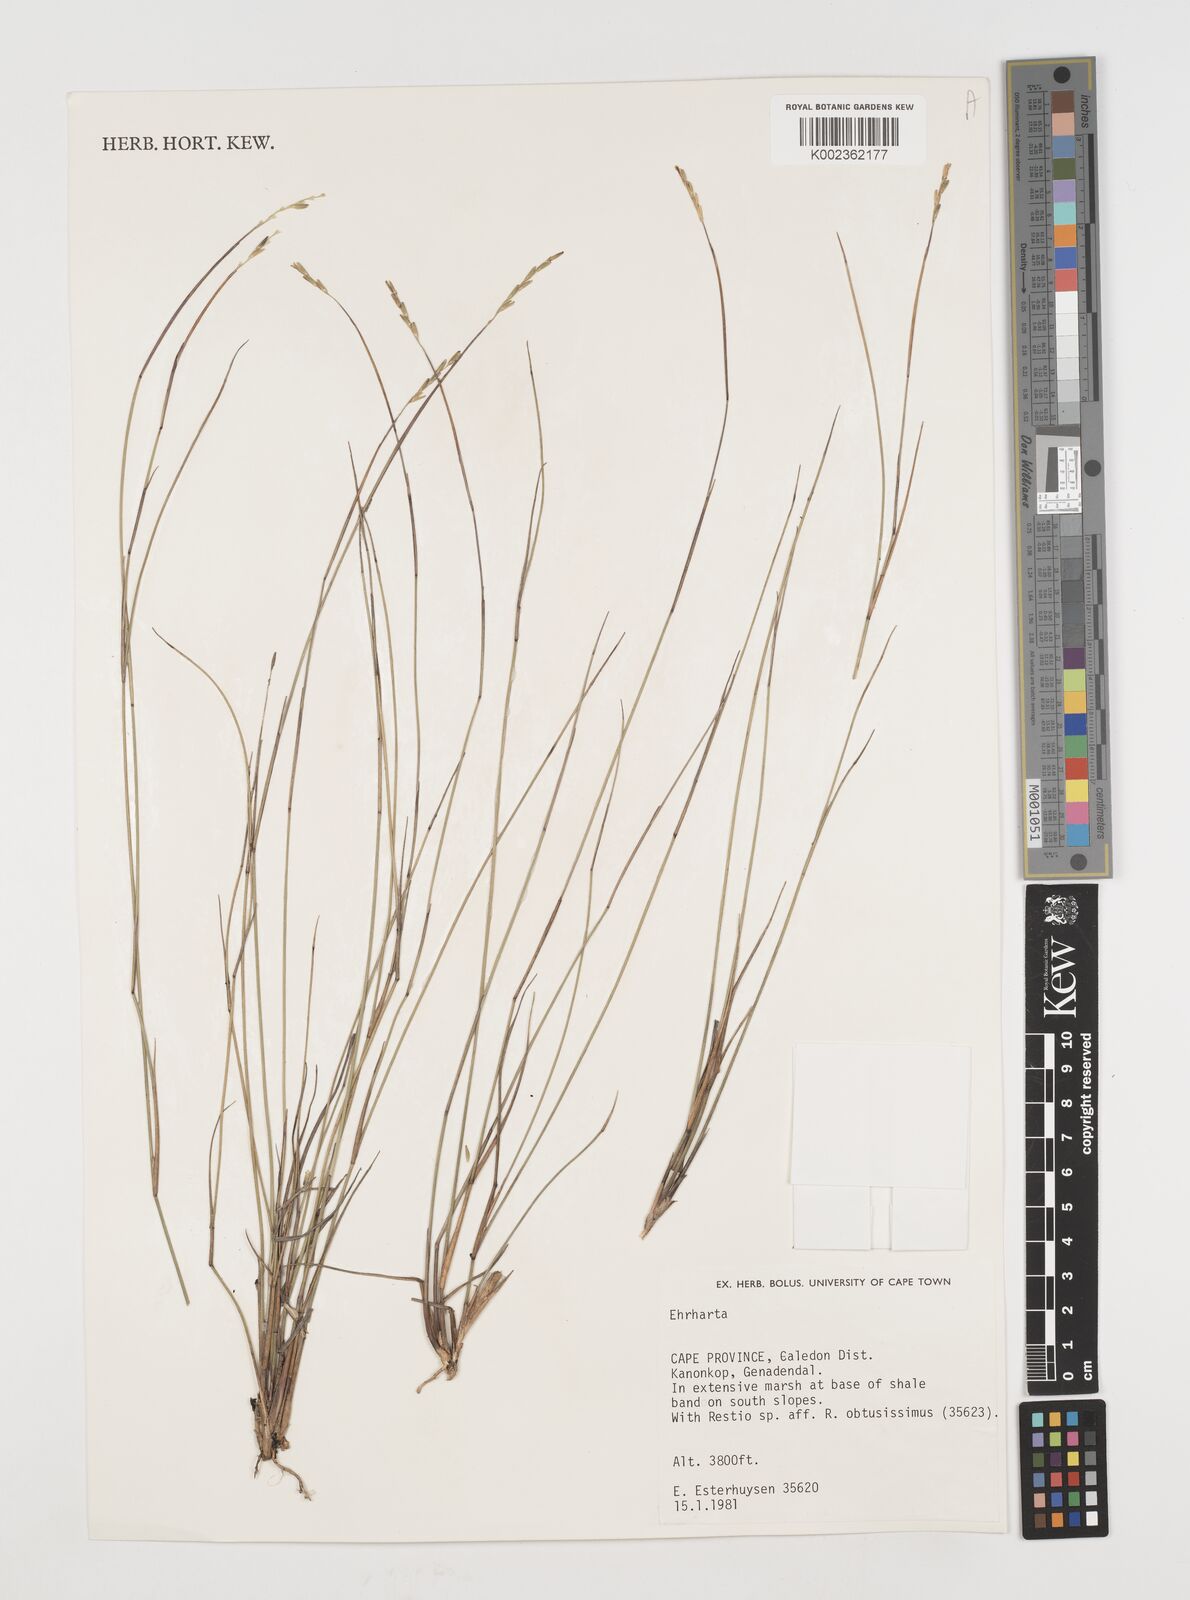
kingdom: Plantae
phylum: Tracheophyta
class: Liliopsida
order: Poales
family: Poaceae
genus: Ehrharta
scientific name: Ehrharta
